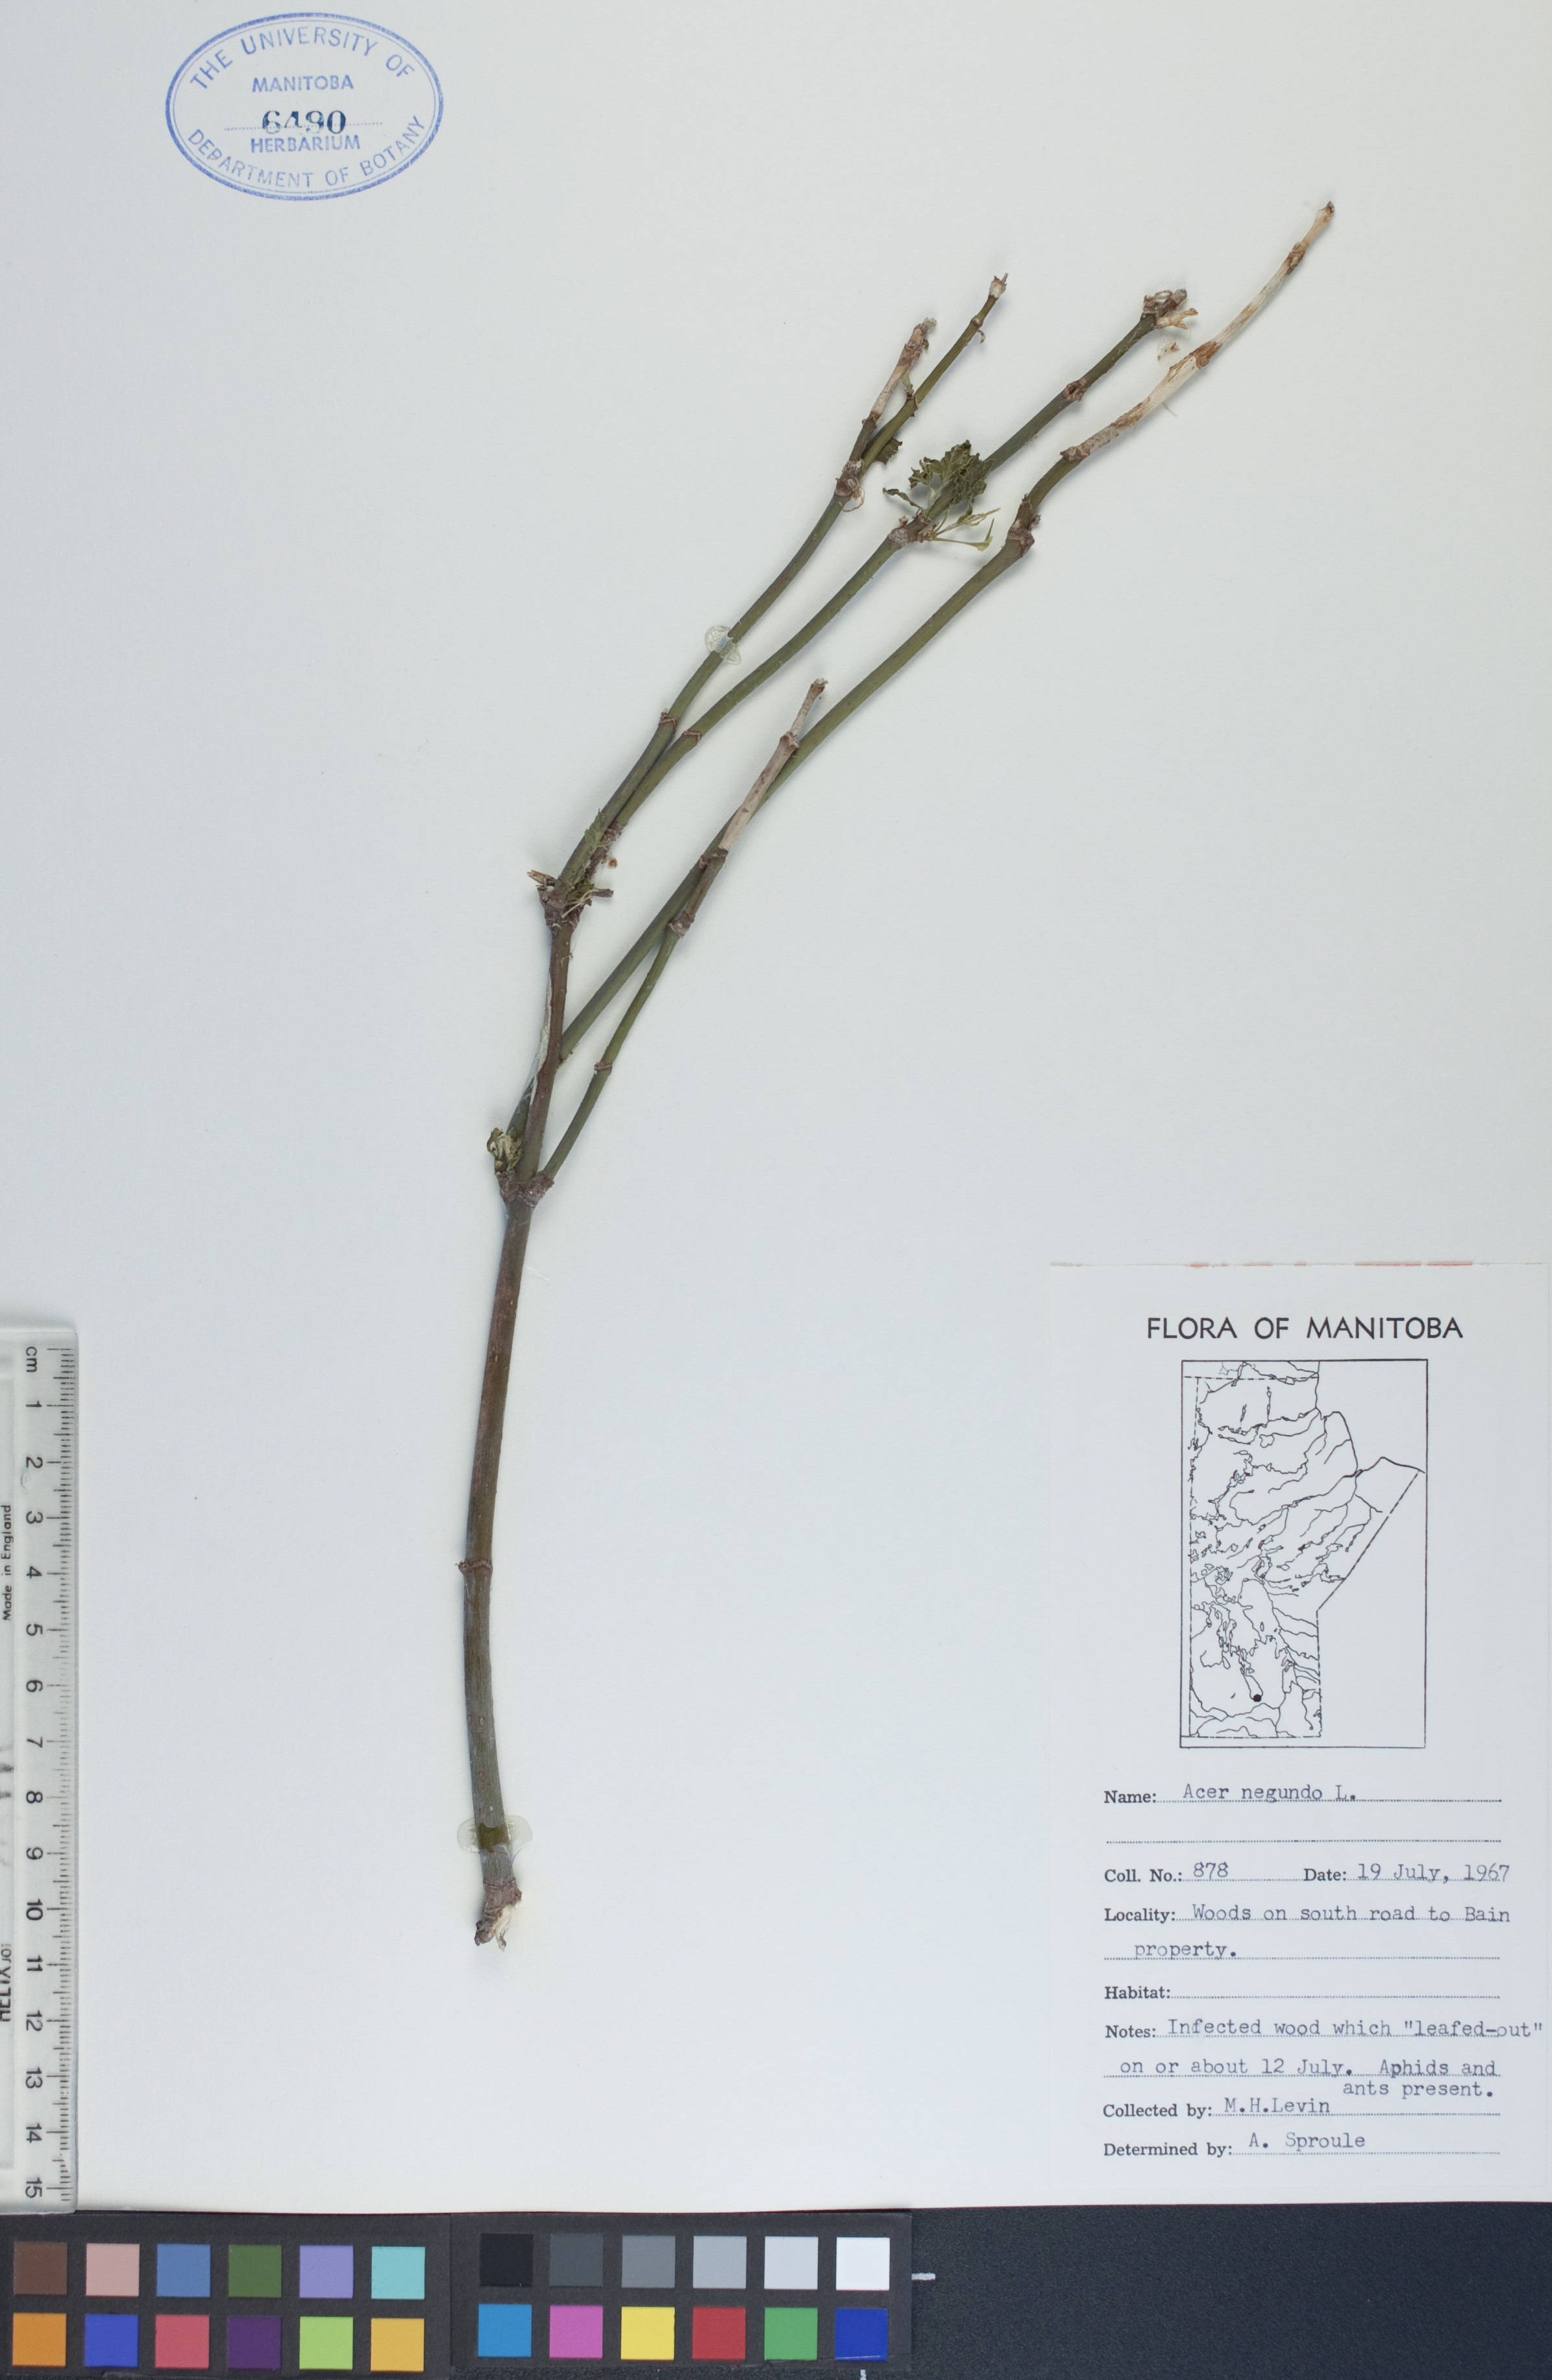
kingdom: Plantae
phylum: Tracheophyta
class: Magnoliopsida
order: Sapindales
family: Sapindaceae
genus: Acer
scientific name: Acer negundo
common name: Ashleaf maple
